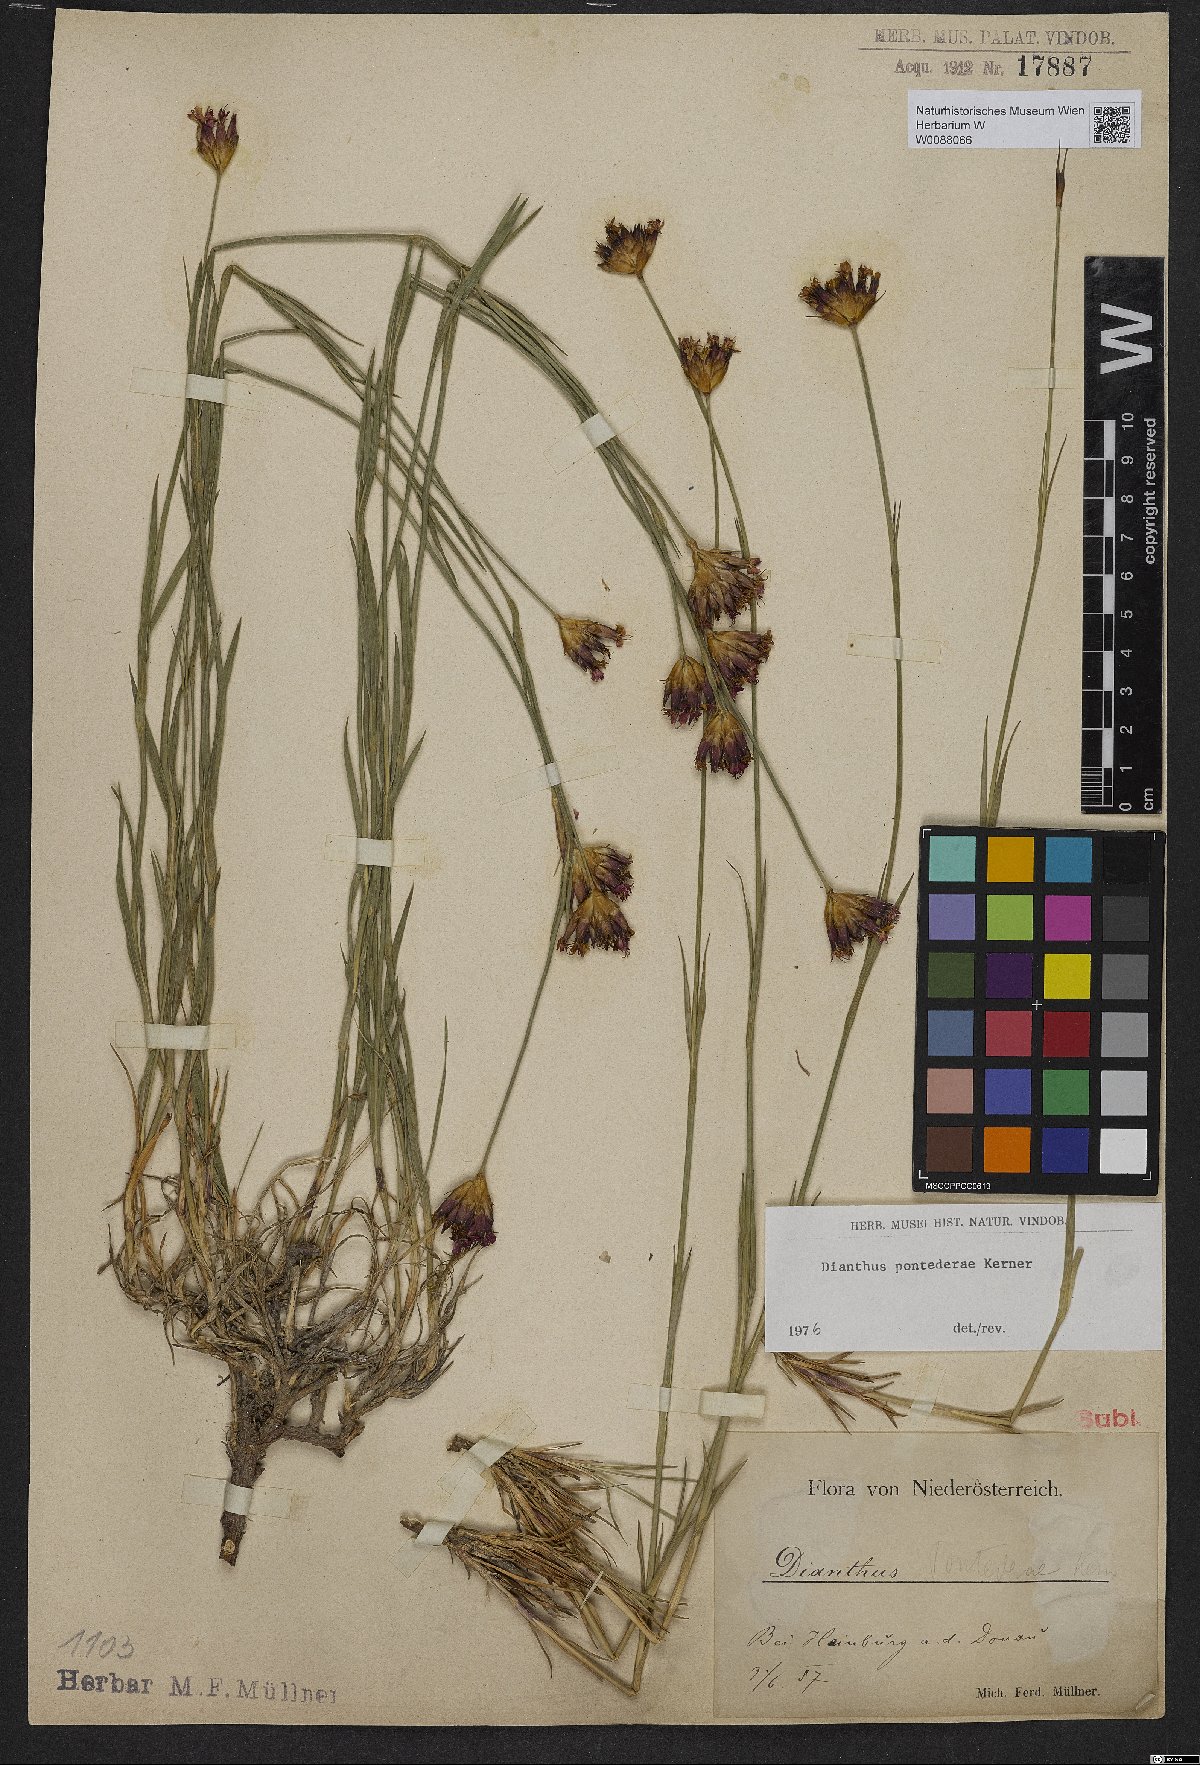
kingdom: Plantae
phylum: Tracheophyta
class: Magnoliopsida
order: Caryophyllales
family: Caryophyllaceae
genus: Dianthus
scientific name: Dianthus pontederae
